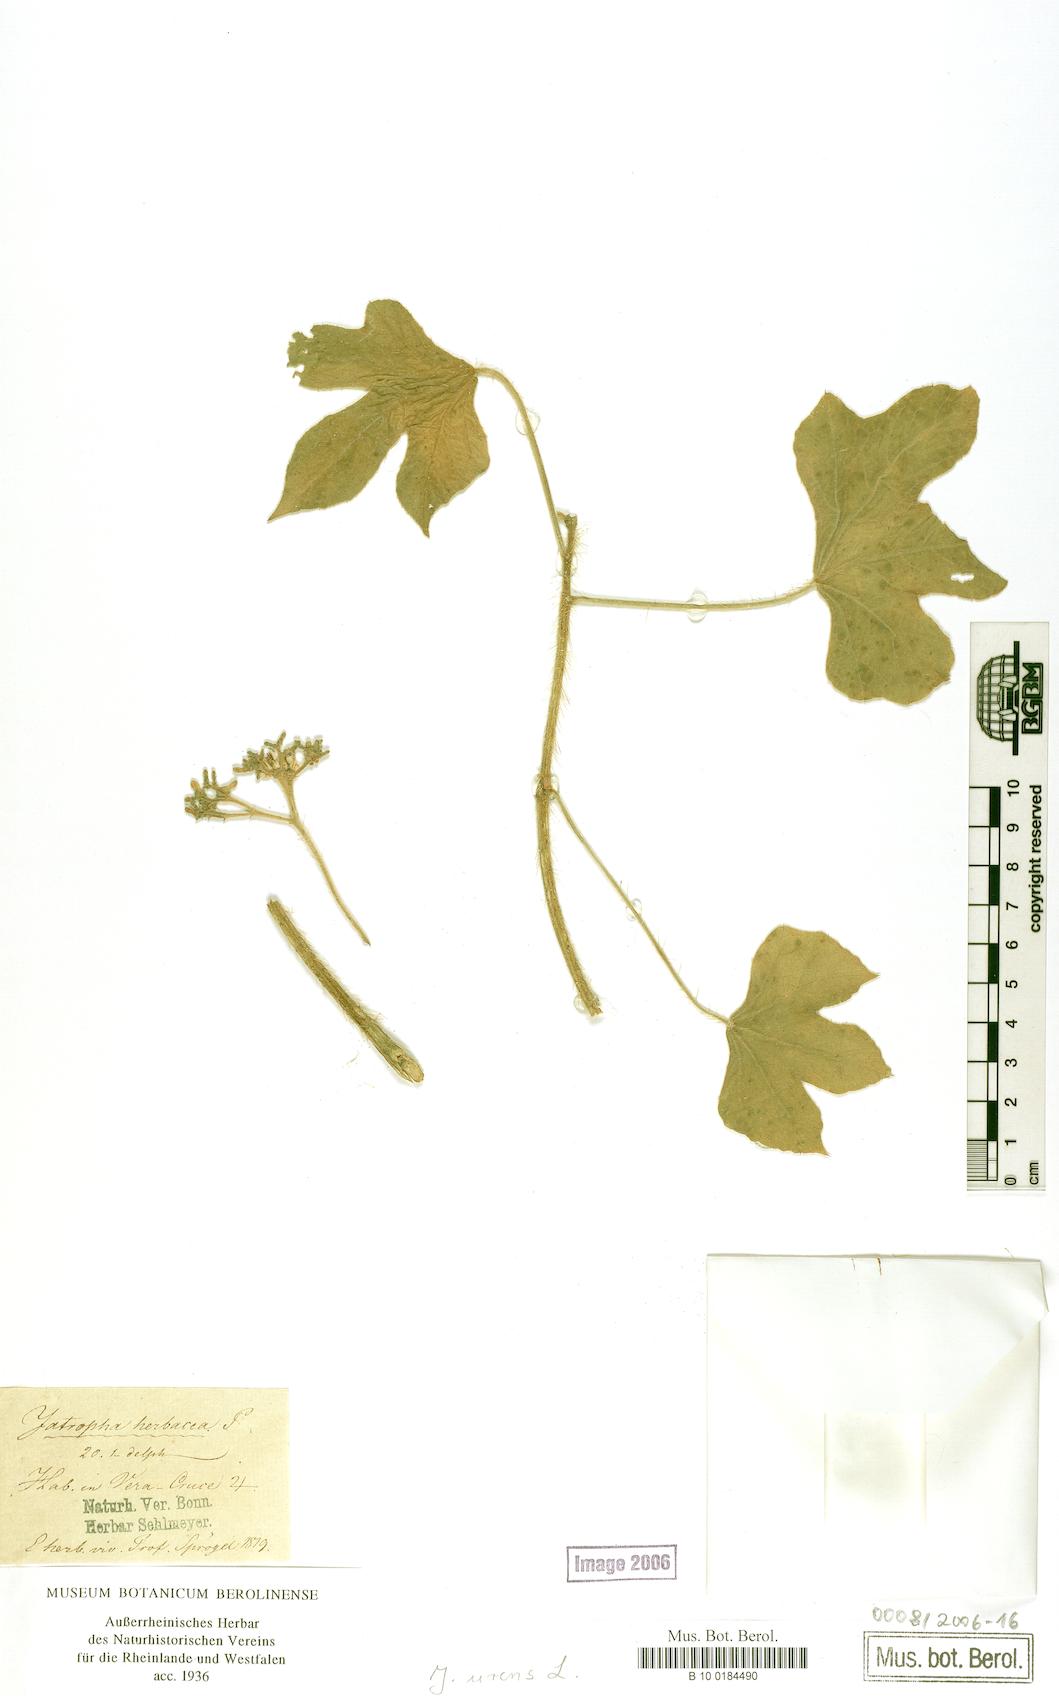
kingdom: Plantae
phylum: Tracheophyta
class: Magnoliopsida
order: Malpighiales
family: Euphorbiaceae
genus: Cnidoscolus
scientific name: Cnidoscolus urens
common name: Bull-nettle
